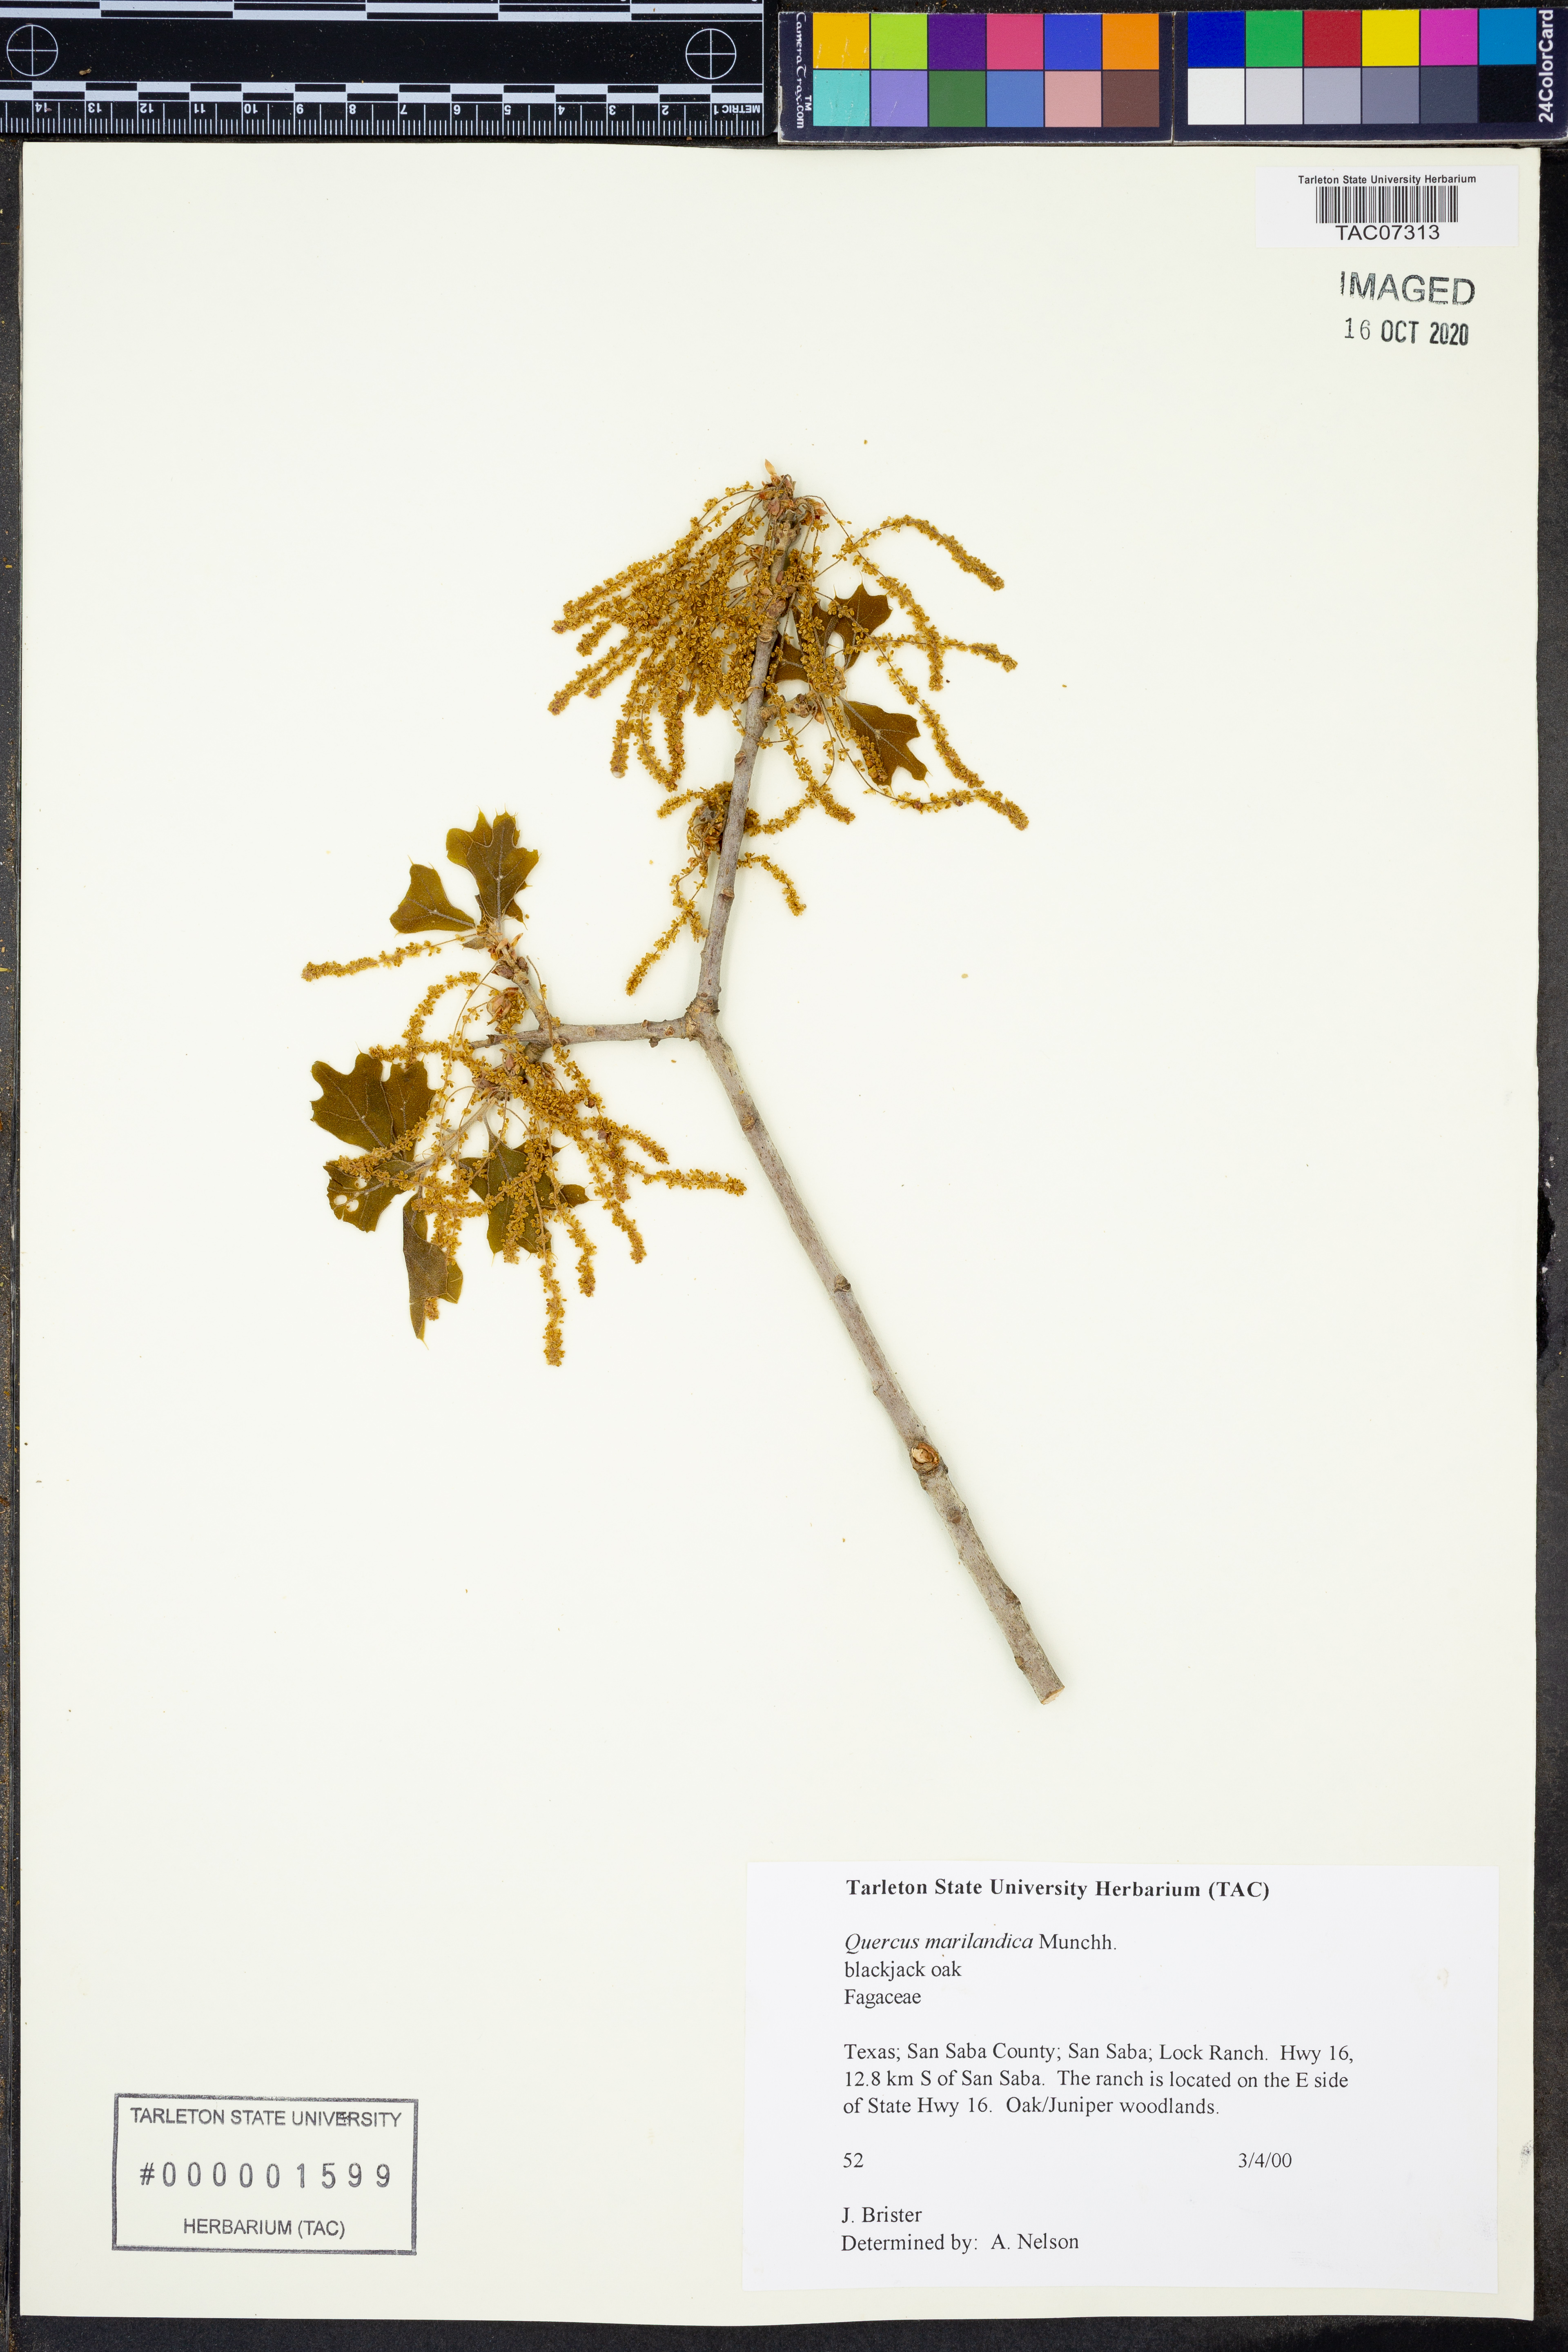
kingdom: Plantae
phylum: Tracheophyta
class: Magnoliopsida
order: Fagales
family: Fagaceae
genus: Quercus
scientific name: Quercus marilandica
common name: Blackjack oak
